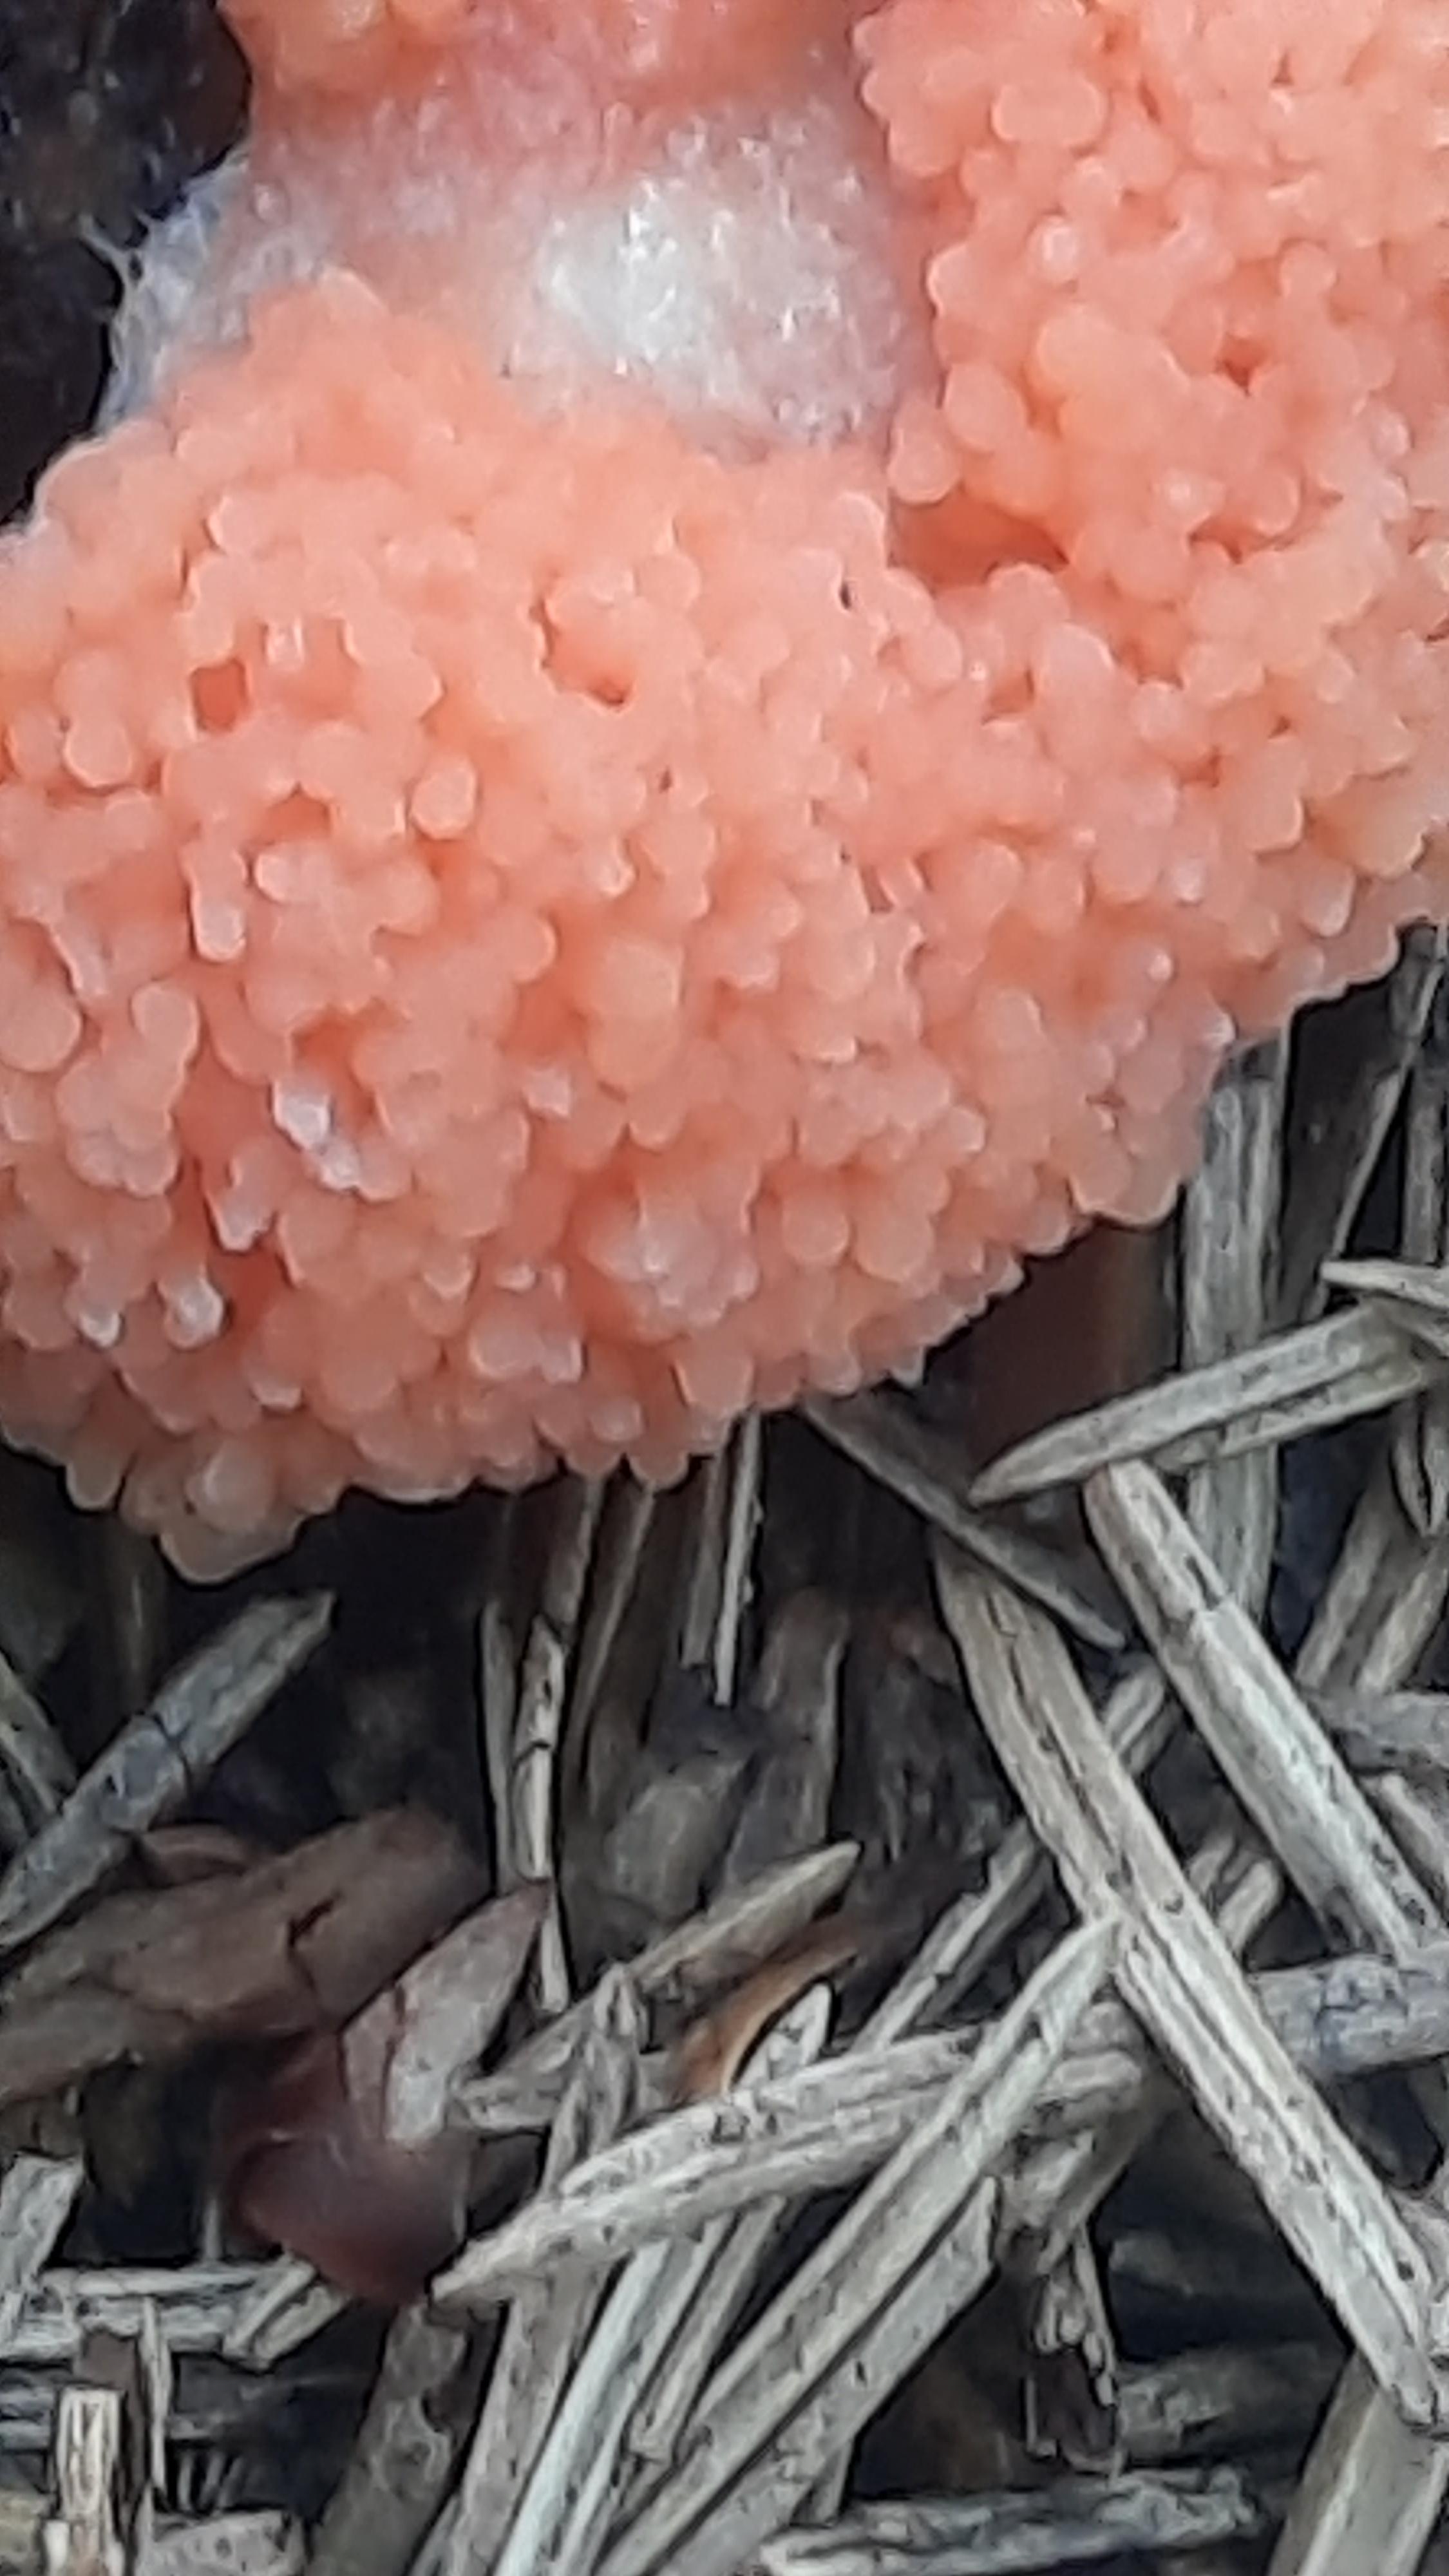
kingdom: Protozoa
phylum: Mycetozoa
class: Myxomycetes
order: Cribrariales
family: Tubiferaceae
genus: Tubifera
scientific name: Tubifera ferruginosa
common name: kanel-støvrør
